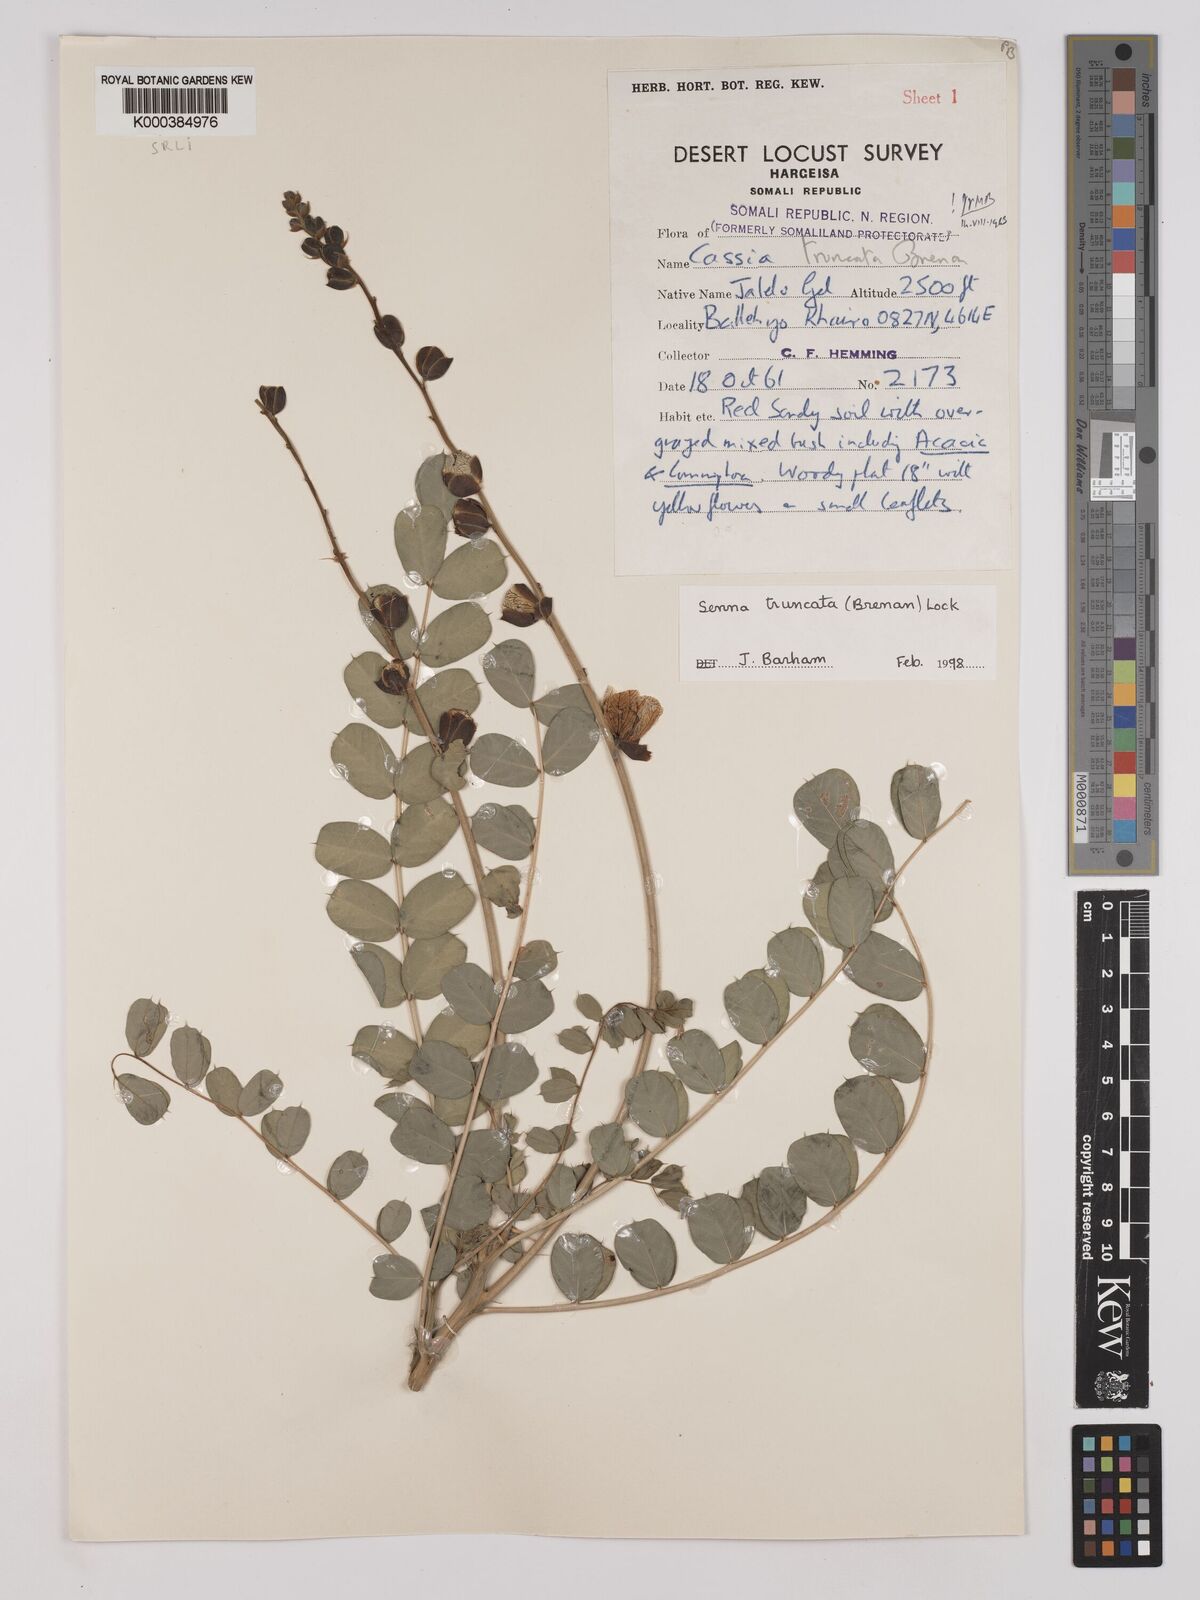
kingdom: Plantae
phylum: Tracheophyta
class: Magnoliopsida
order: Fabales
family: Fabaceae
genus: Senna
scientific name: Senna truncata
